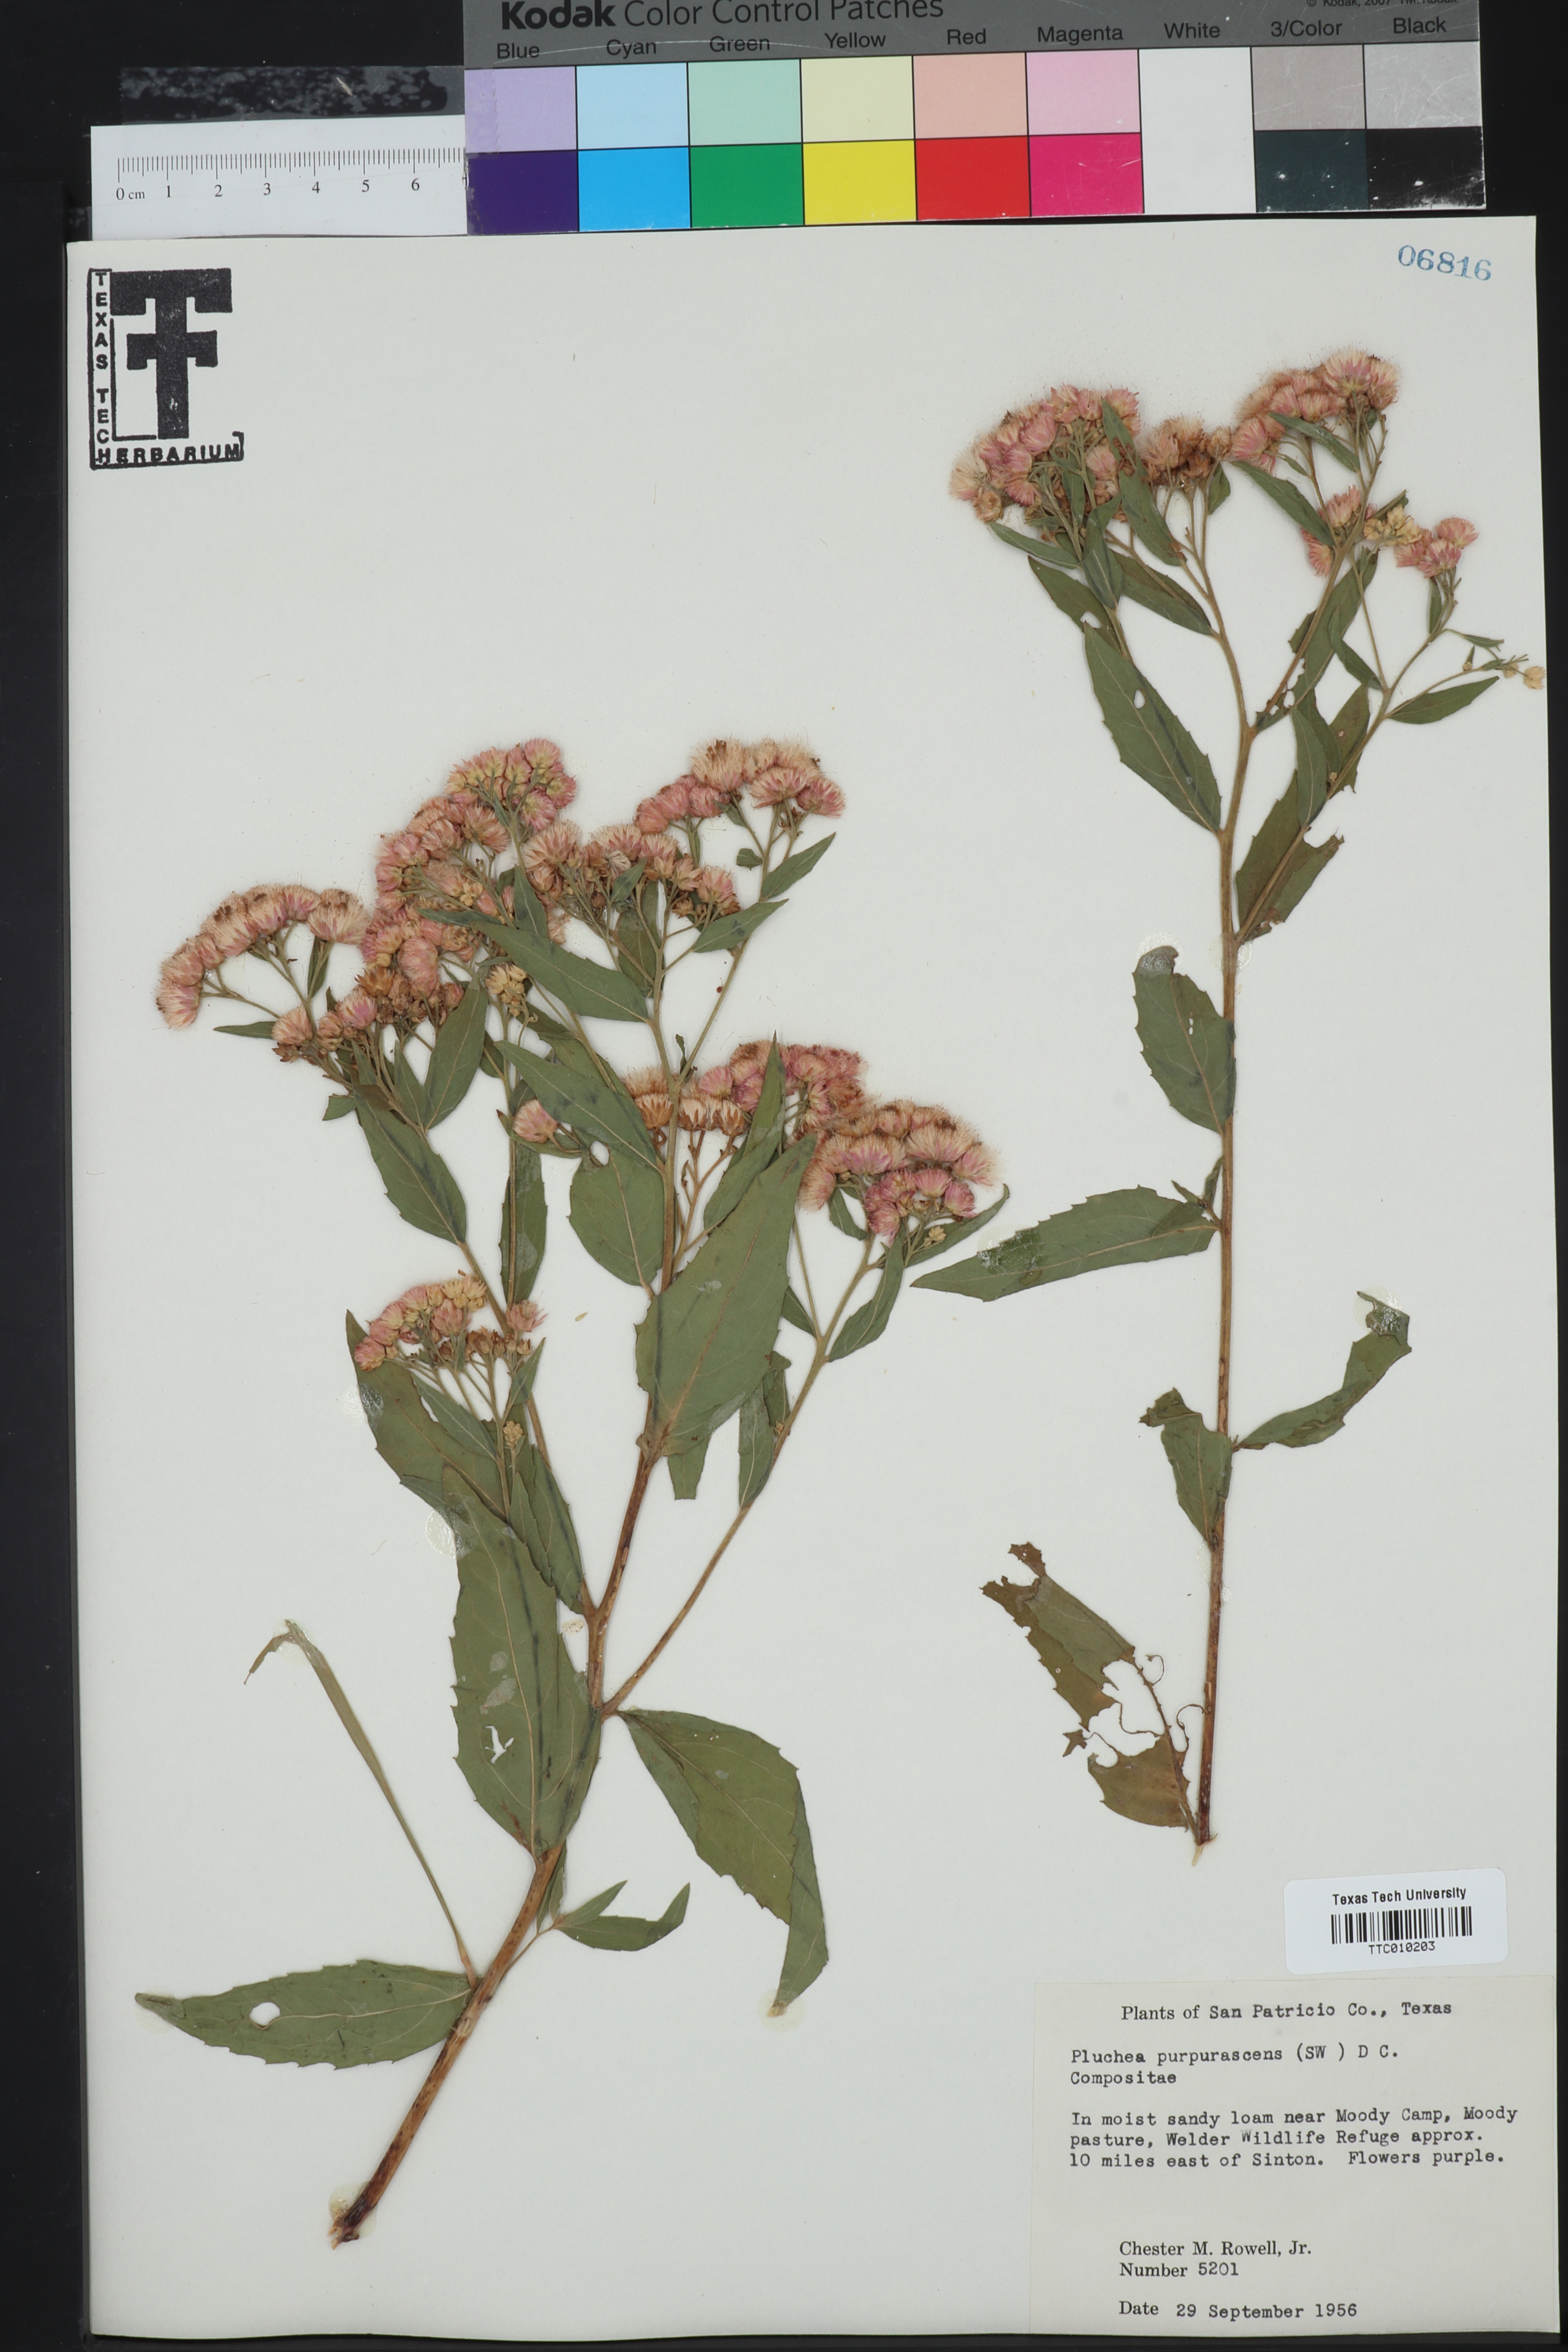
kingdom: Plantae
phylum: Tracheophyta
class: Magnoliopsida
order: Asterales
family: Asteraceae
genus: Pluchea
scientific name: Pluchea odorata
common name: Saltmarsh fleabane
